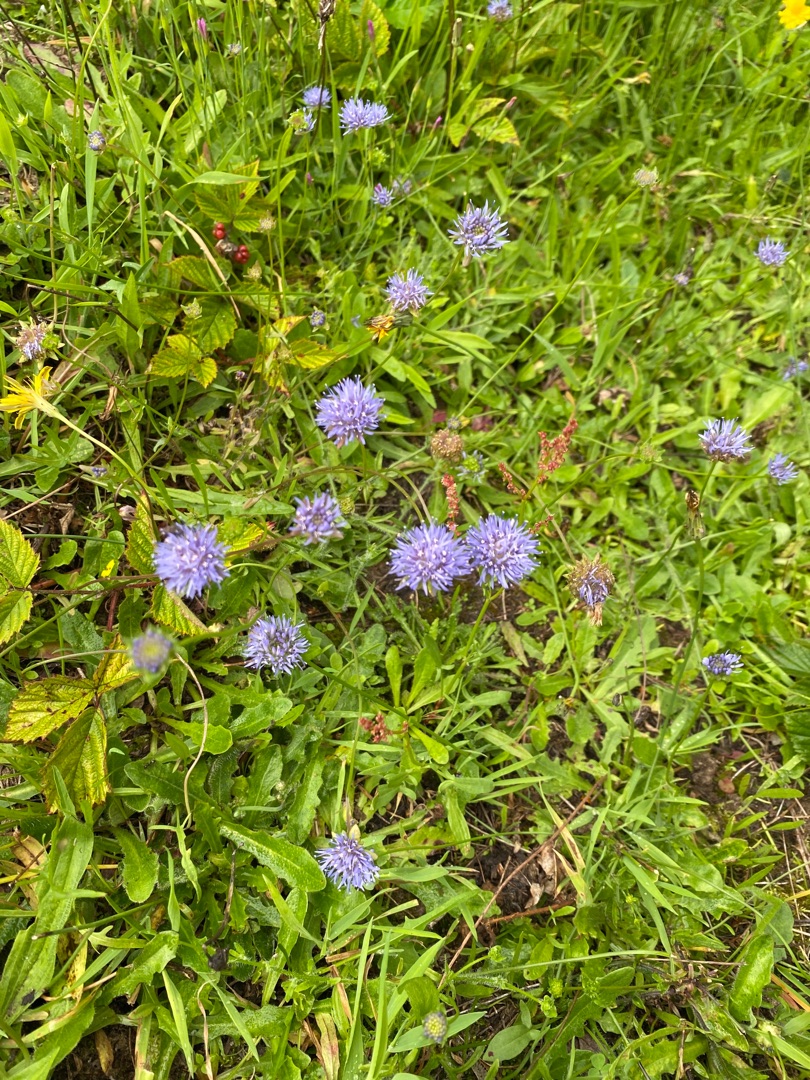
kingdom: Plantae
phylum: Tracheophyta
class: Magnoliopsida
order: Asterales
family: Campanulaceae
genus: Jasione
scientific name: Jasione montana
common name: Blåmunke
